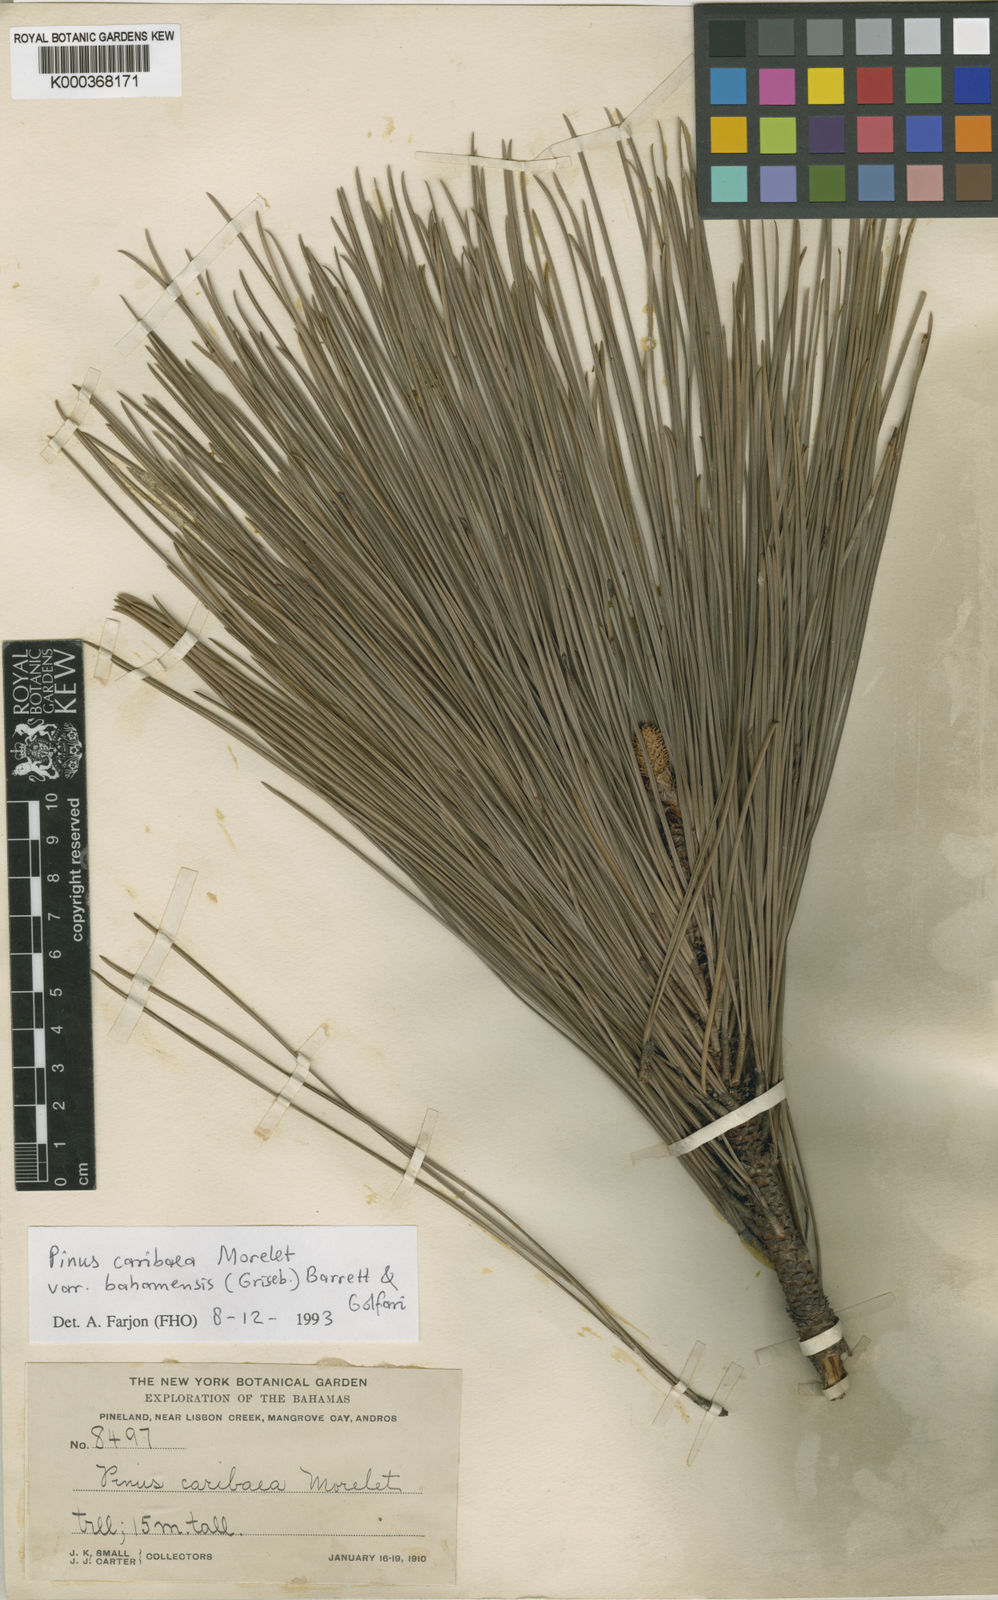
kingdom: Plantae
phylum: Tracheophyta
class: Pinopsida
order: Pinales
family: Pinaceae
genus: Pinus
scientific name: Pinus caribaea
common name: Caribbean pine
